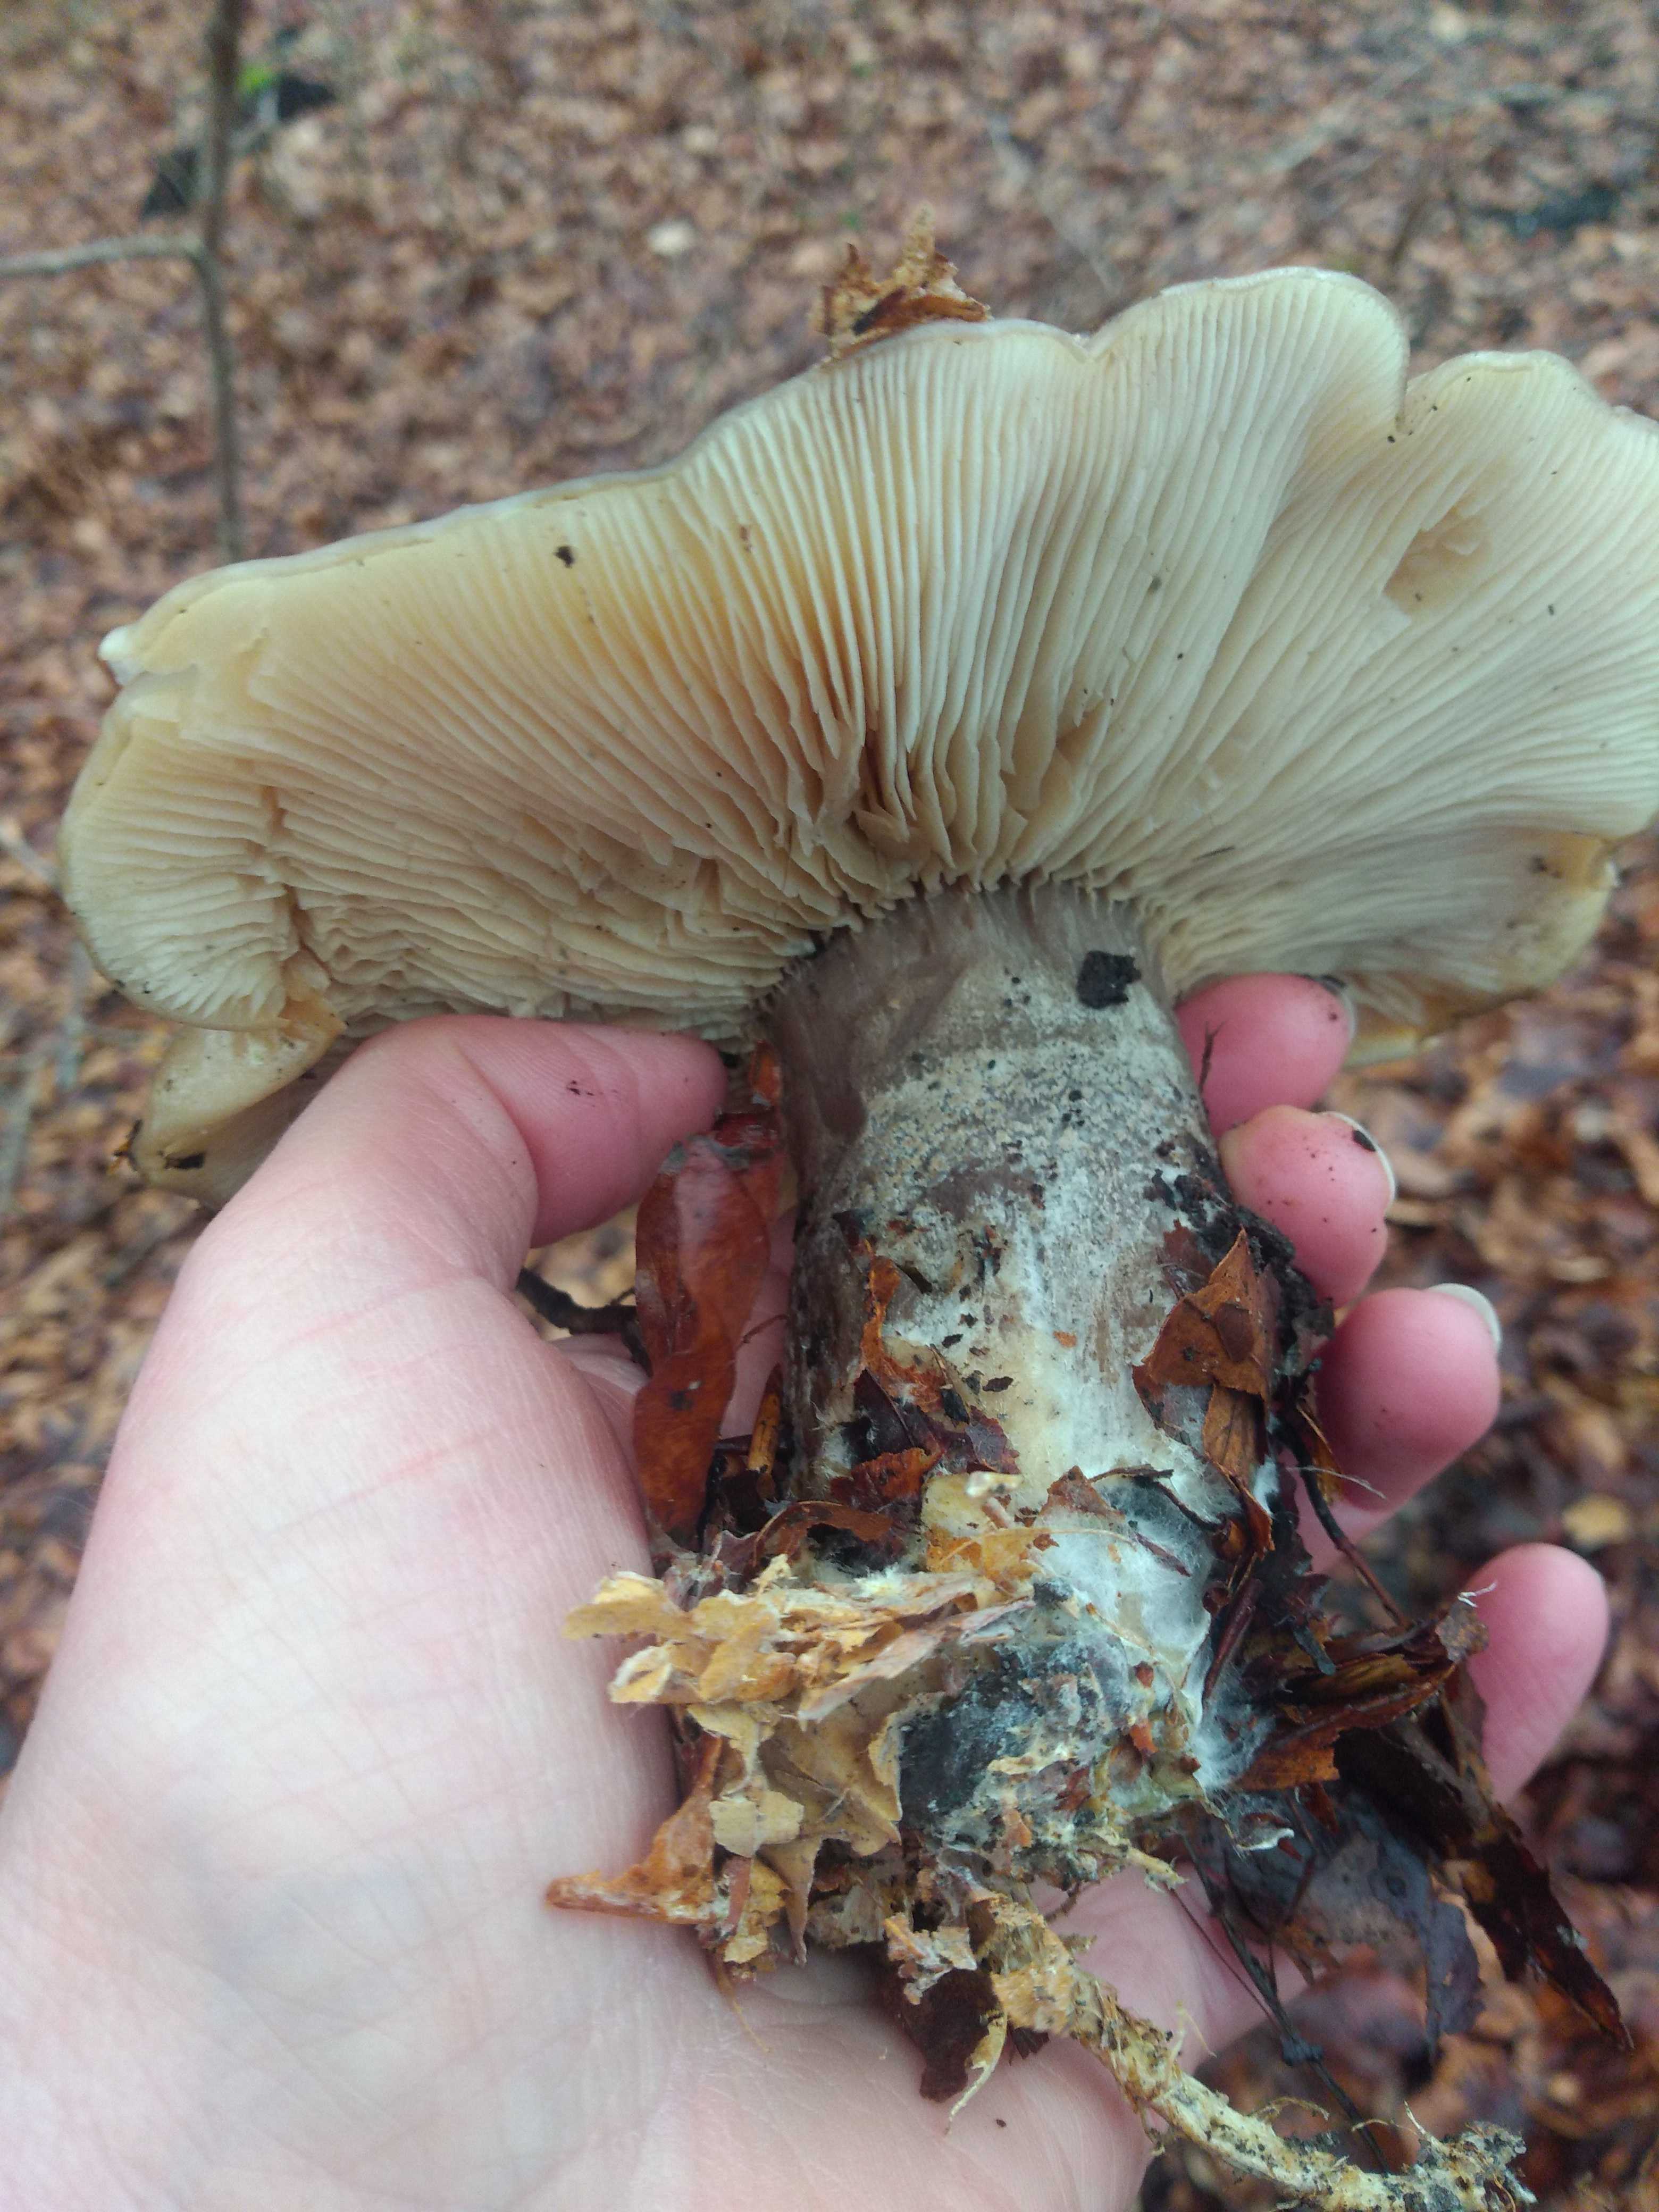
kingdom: Fungi
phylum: Basidiomycota
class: Agaricomycetes
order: Agaricales
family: Tricholomataceae
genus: Clitocybe
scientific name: Clitocybe nebularis
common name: tåge-tragthat
